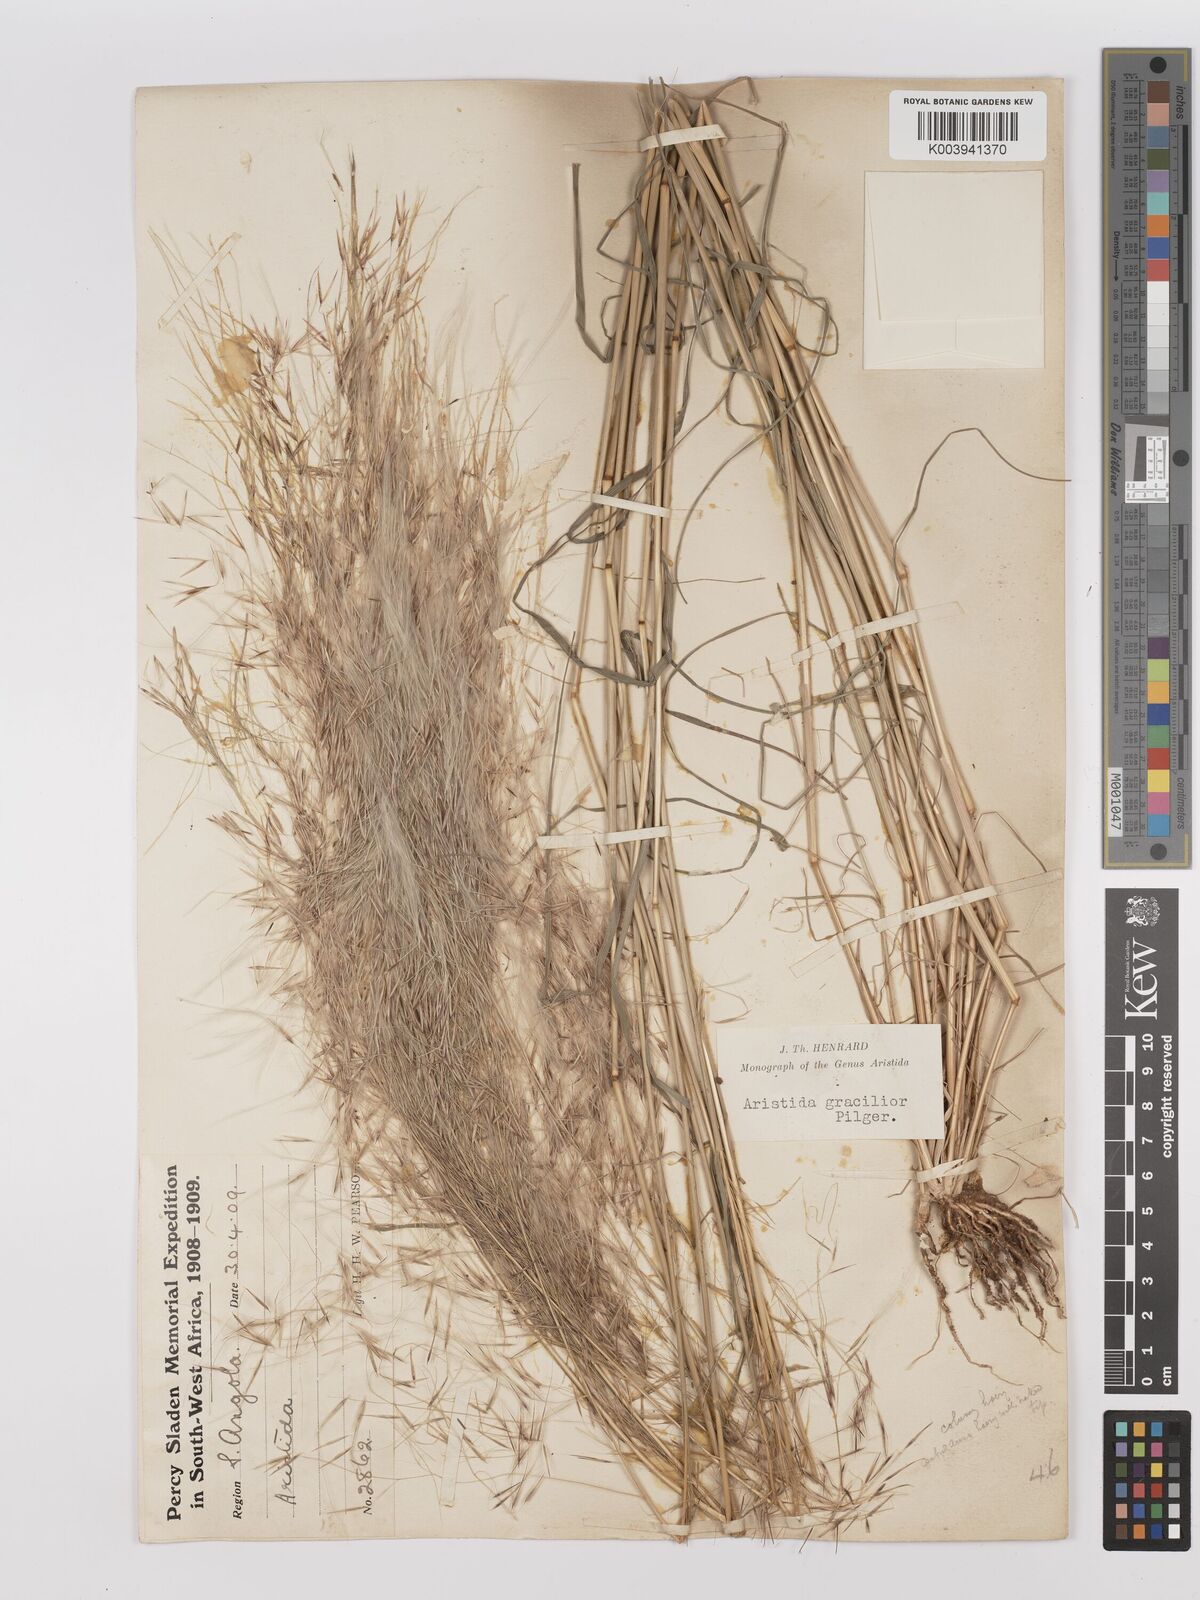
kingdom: Plantae
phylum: Tracheophyta
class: Liliopsida
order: Poales
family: Poaceae
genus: Stipagrostis
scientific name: Stipagrostis hirtigluma
